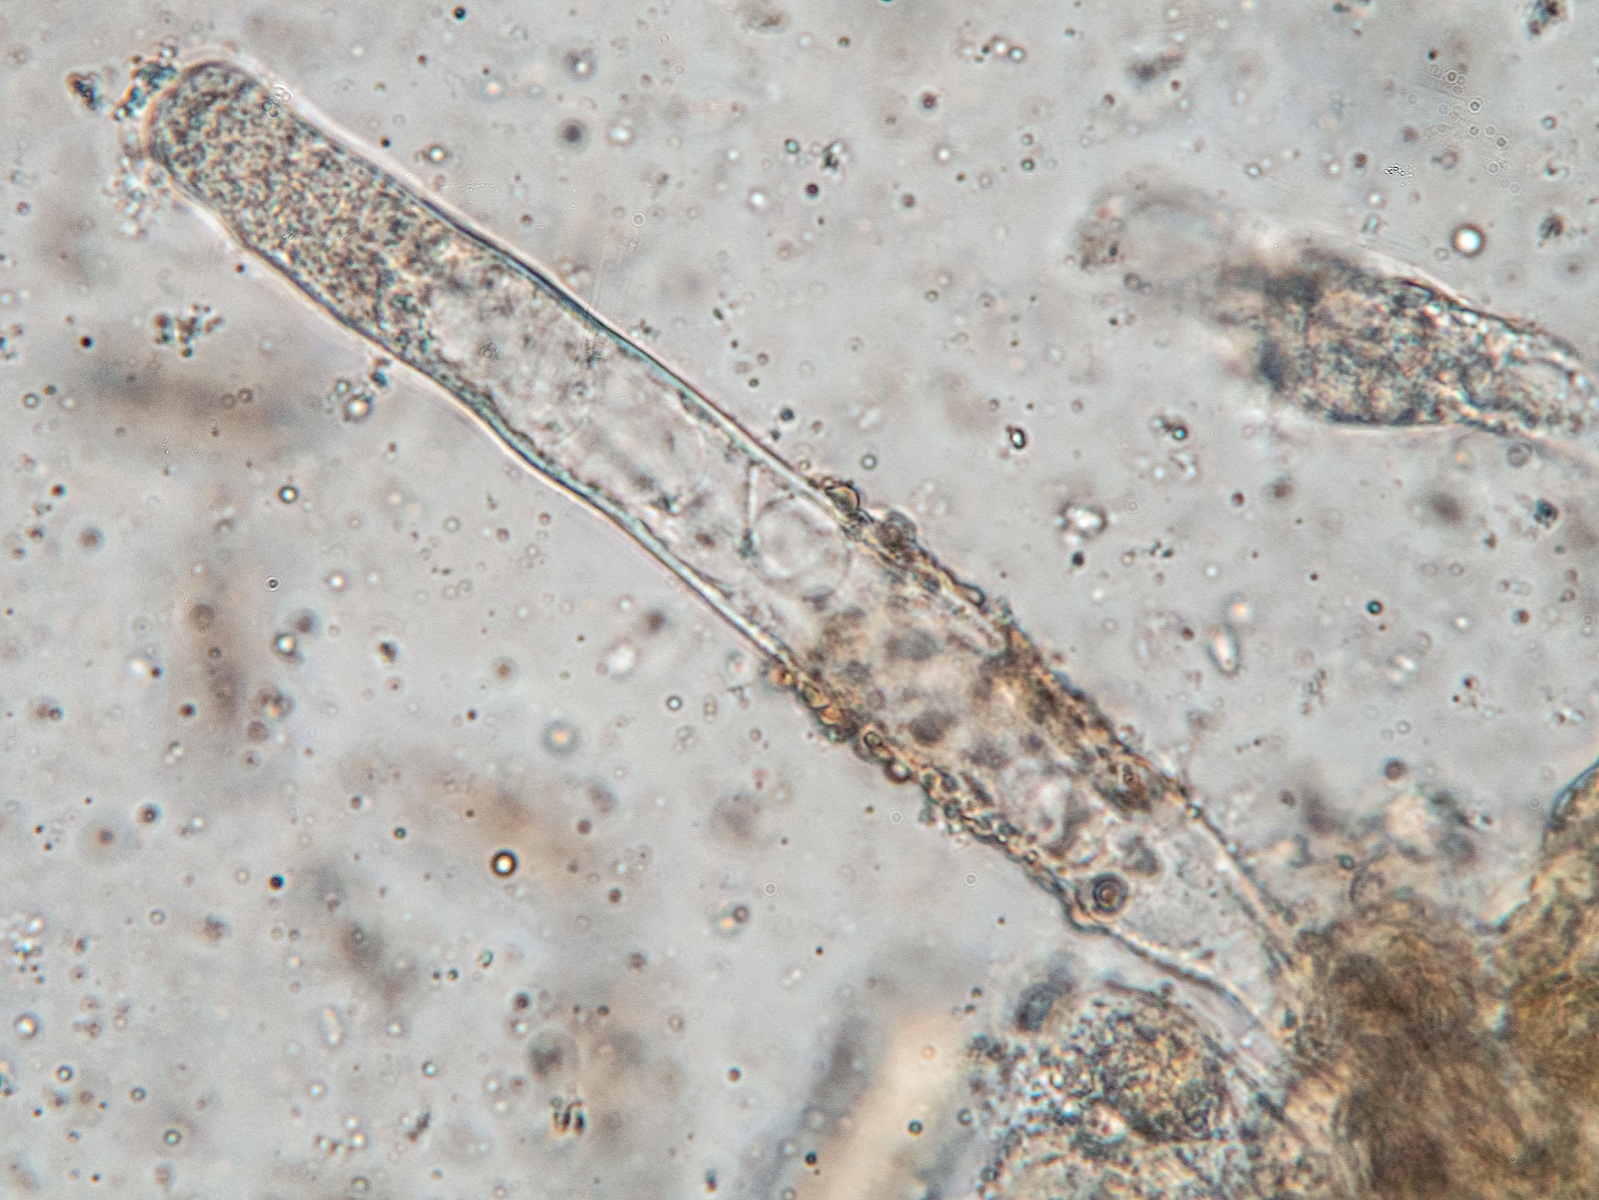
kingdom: Fungi
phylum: Basidiomycota
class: Agaricomycetes
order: Boletales
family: Gomphidiaceae
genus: Chroogomphus
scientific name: Chroogomphus rutilus
